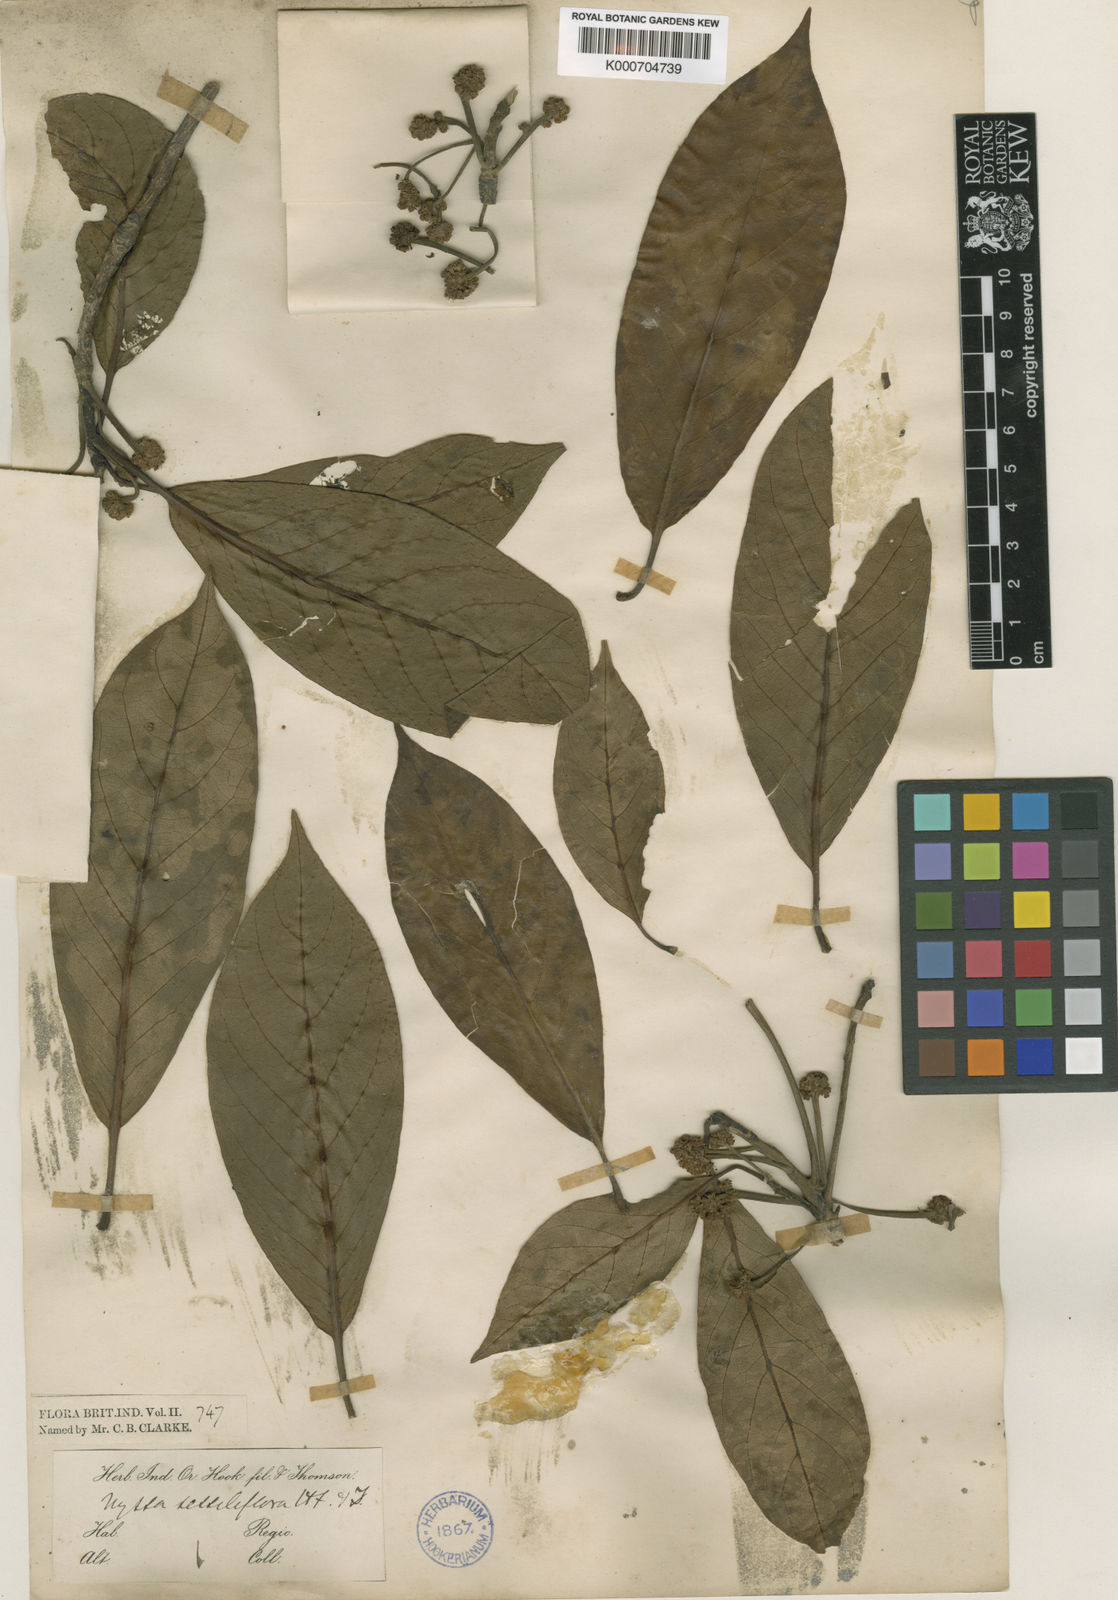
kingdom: Plantae
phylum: Tracheophyta
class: Magnoliopsida
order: Cornales
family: Nyssaceae
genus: Nyssa
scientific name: Nyssa javanica
